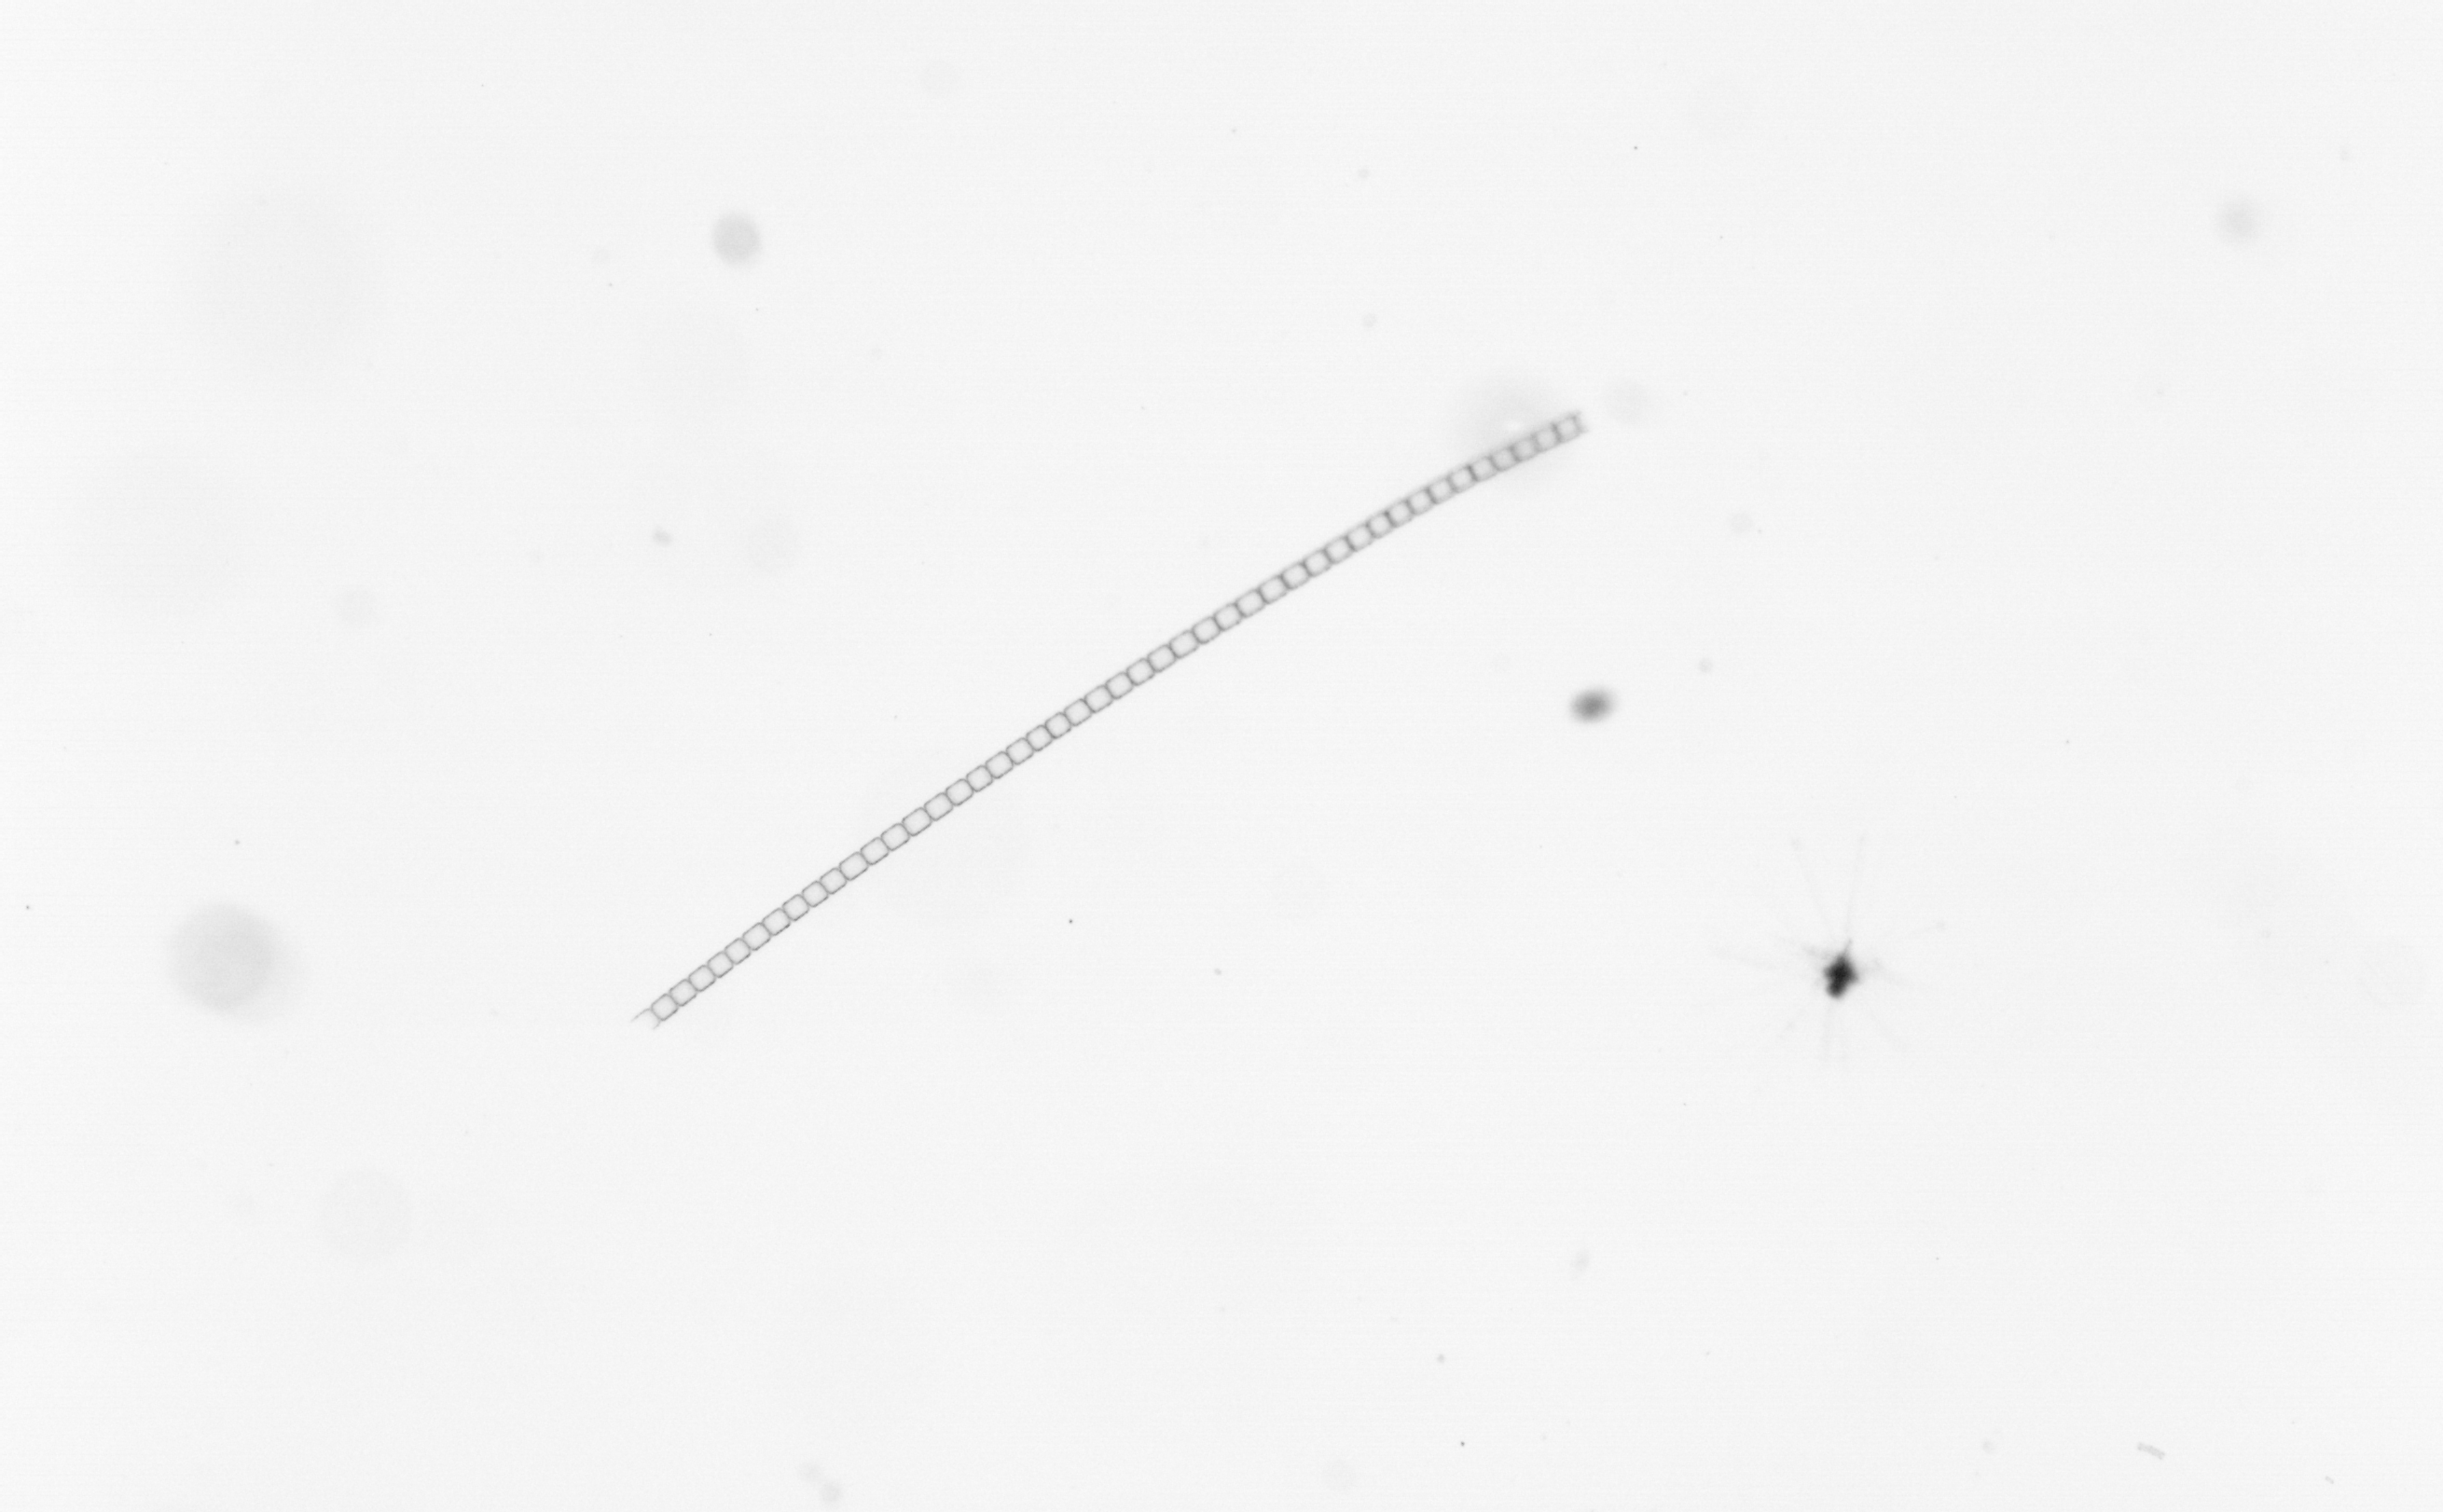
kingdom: Chromista
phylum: Ochrophyta
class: Bacillariophyceae
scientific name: Bacillariophyceae
